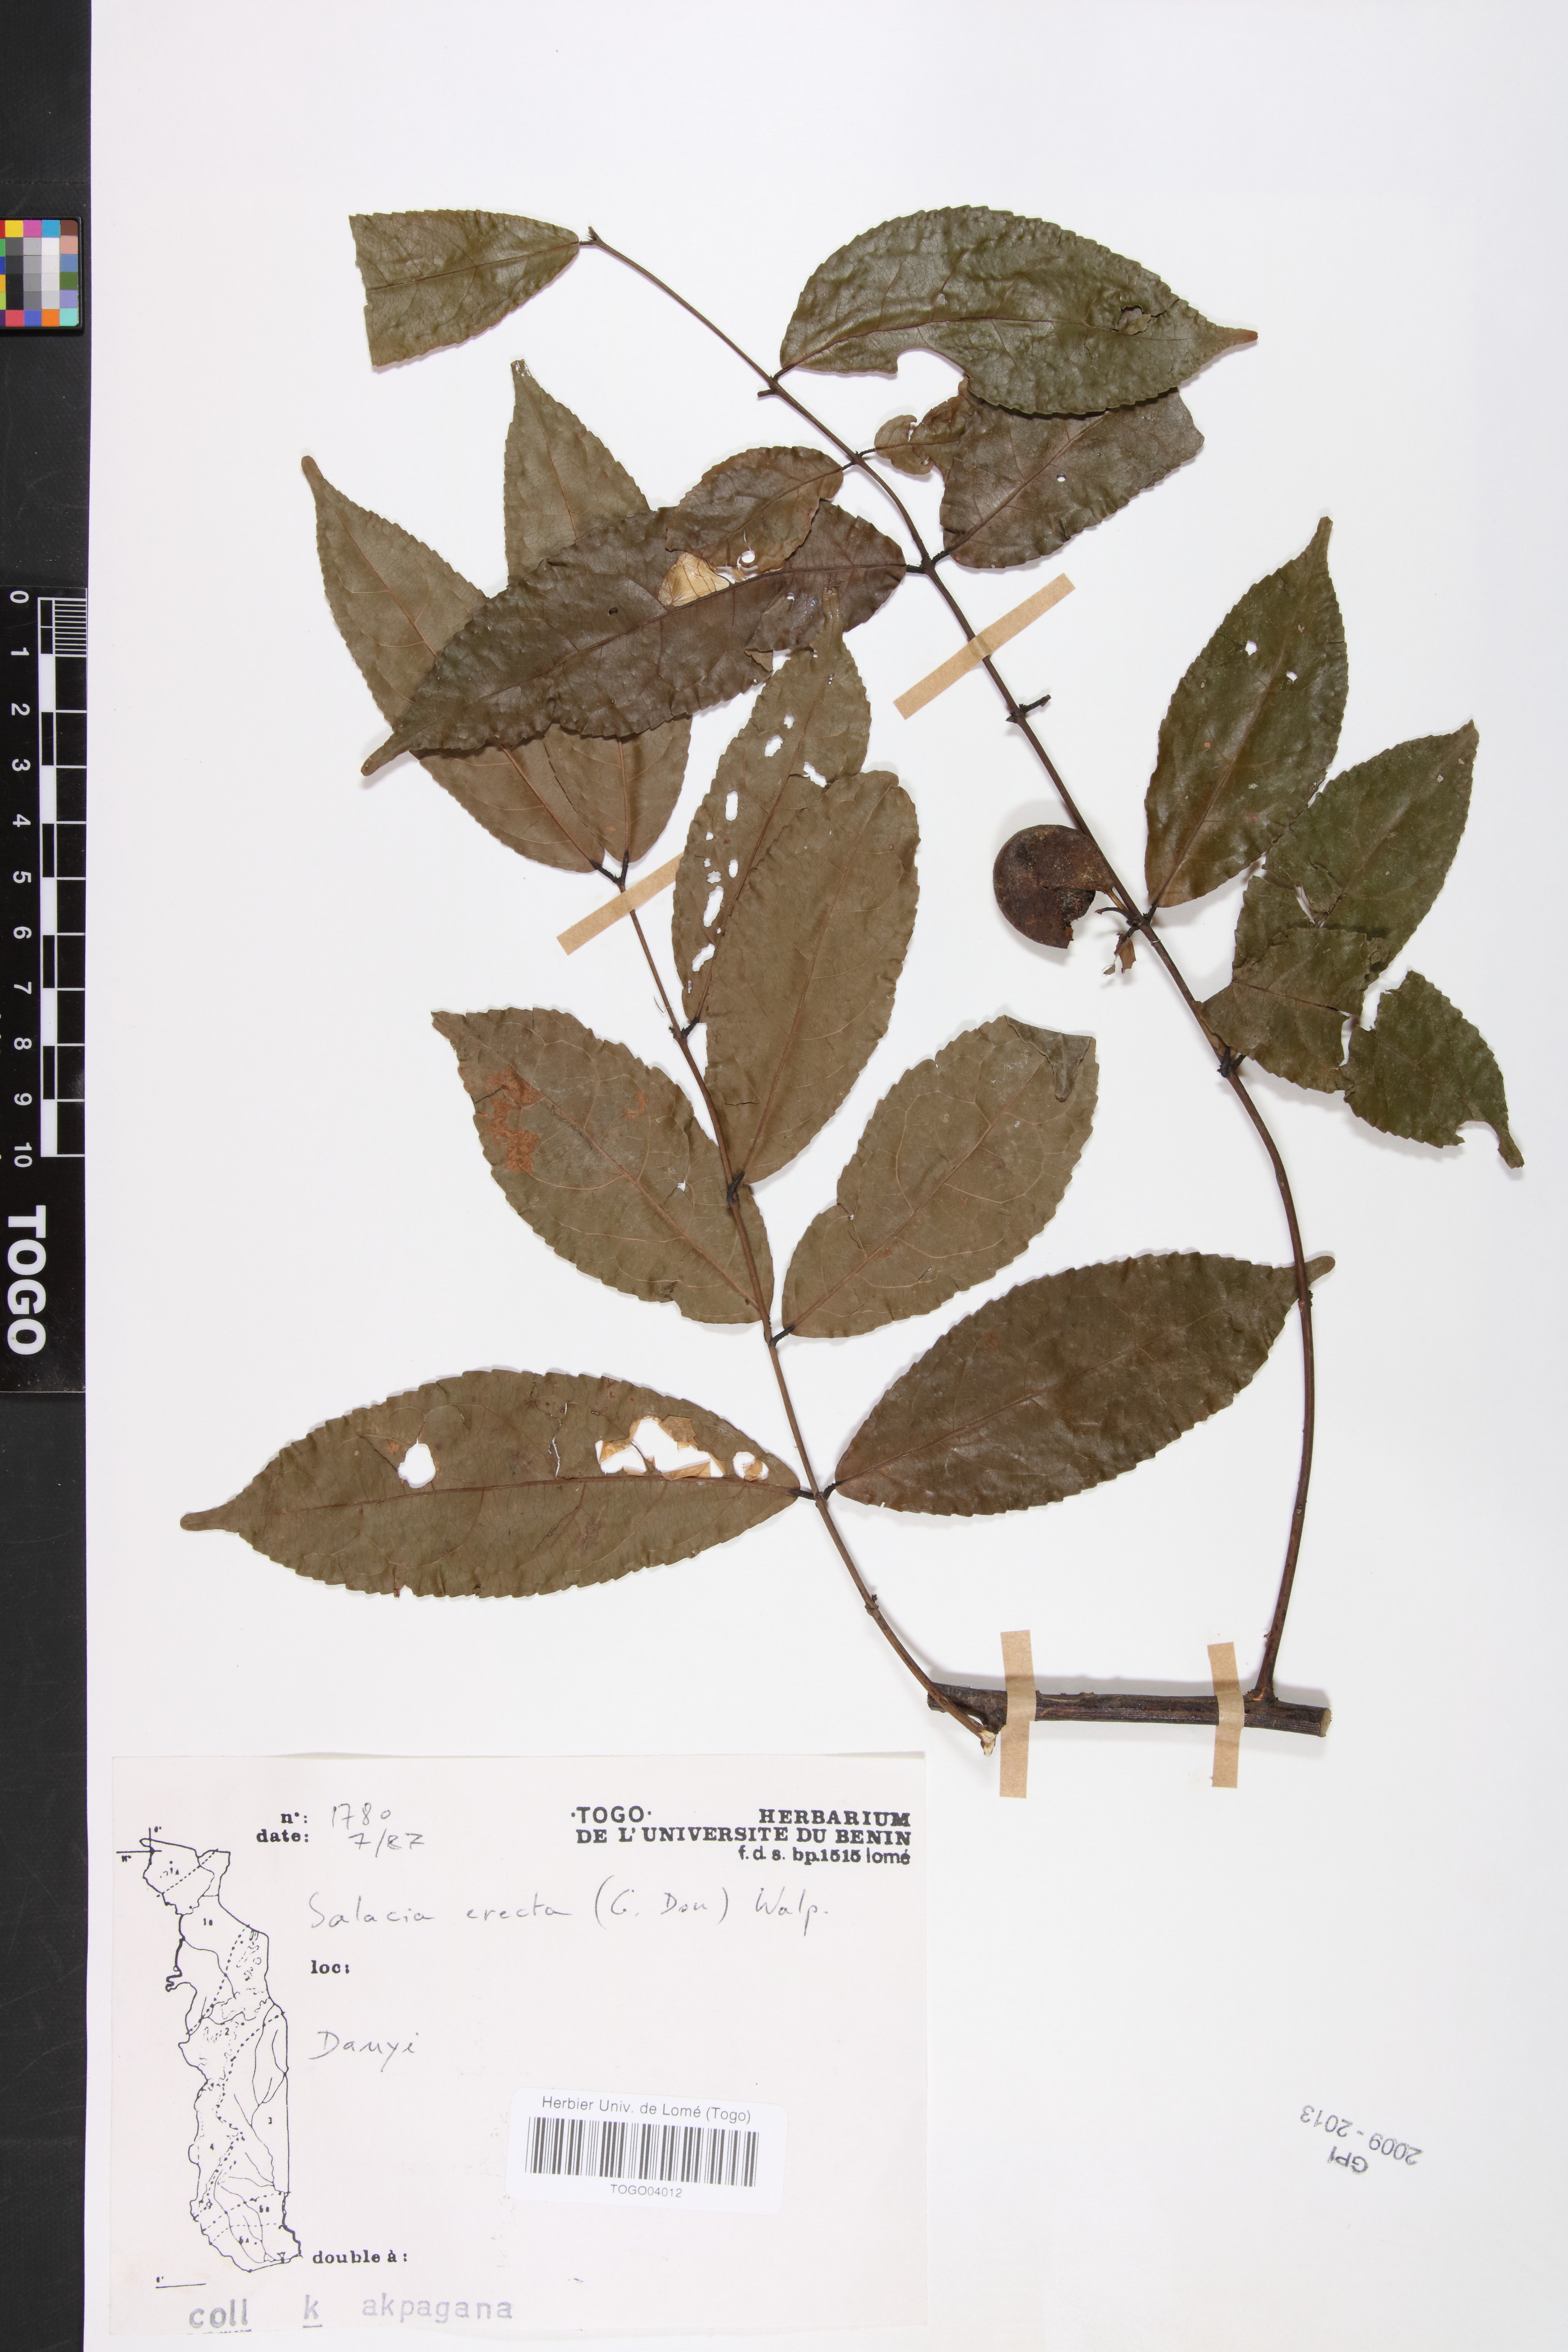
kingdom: Plantae
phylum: Tracheophyta
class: Magnoliopsida
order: Celastrales
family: Celastraceae
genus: Salacia
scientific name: Salacia erecta
